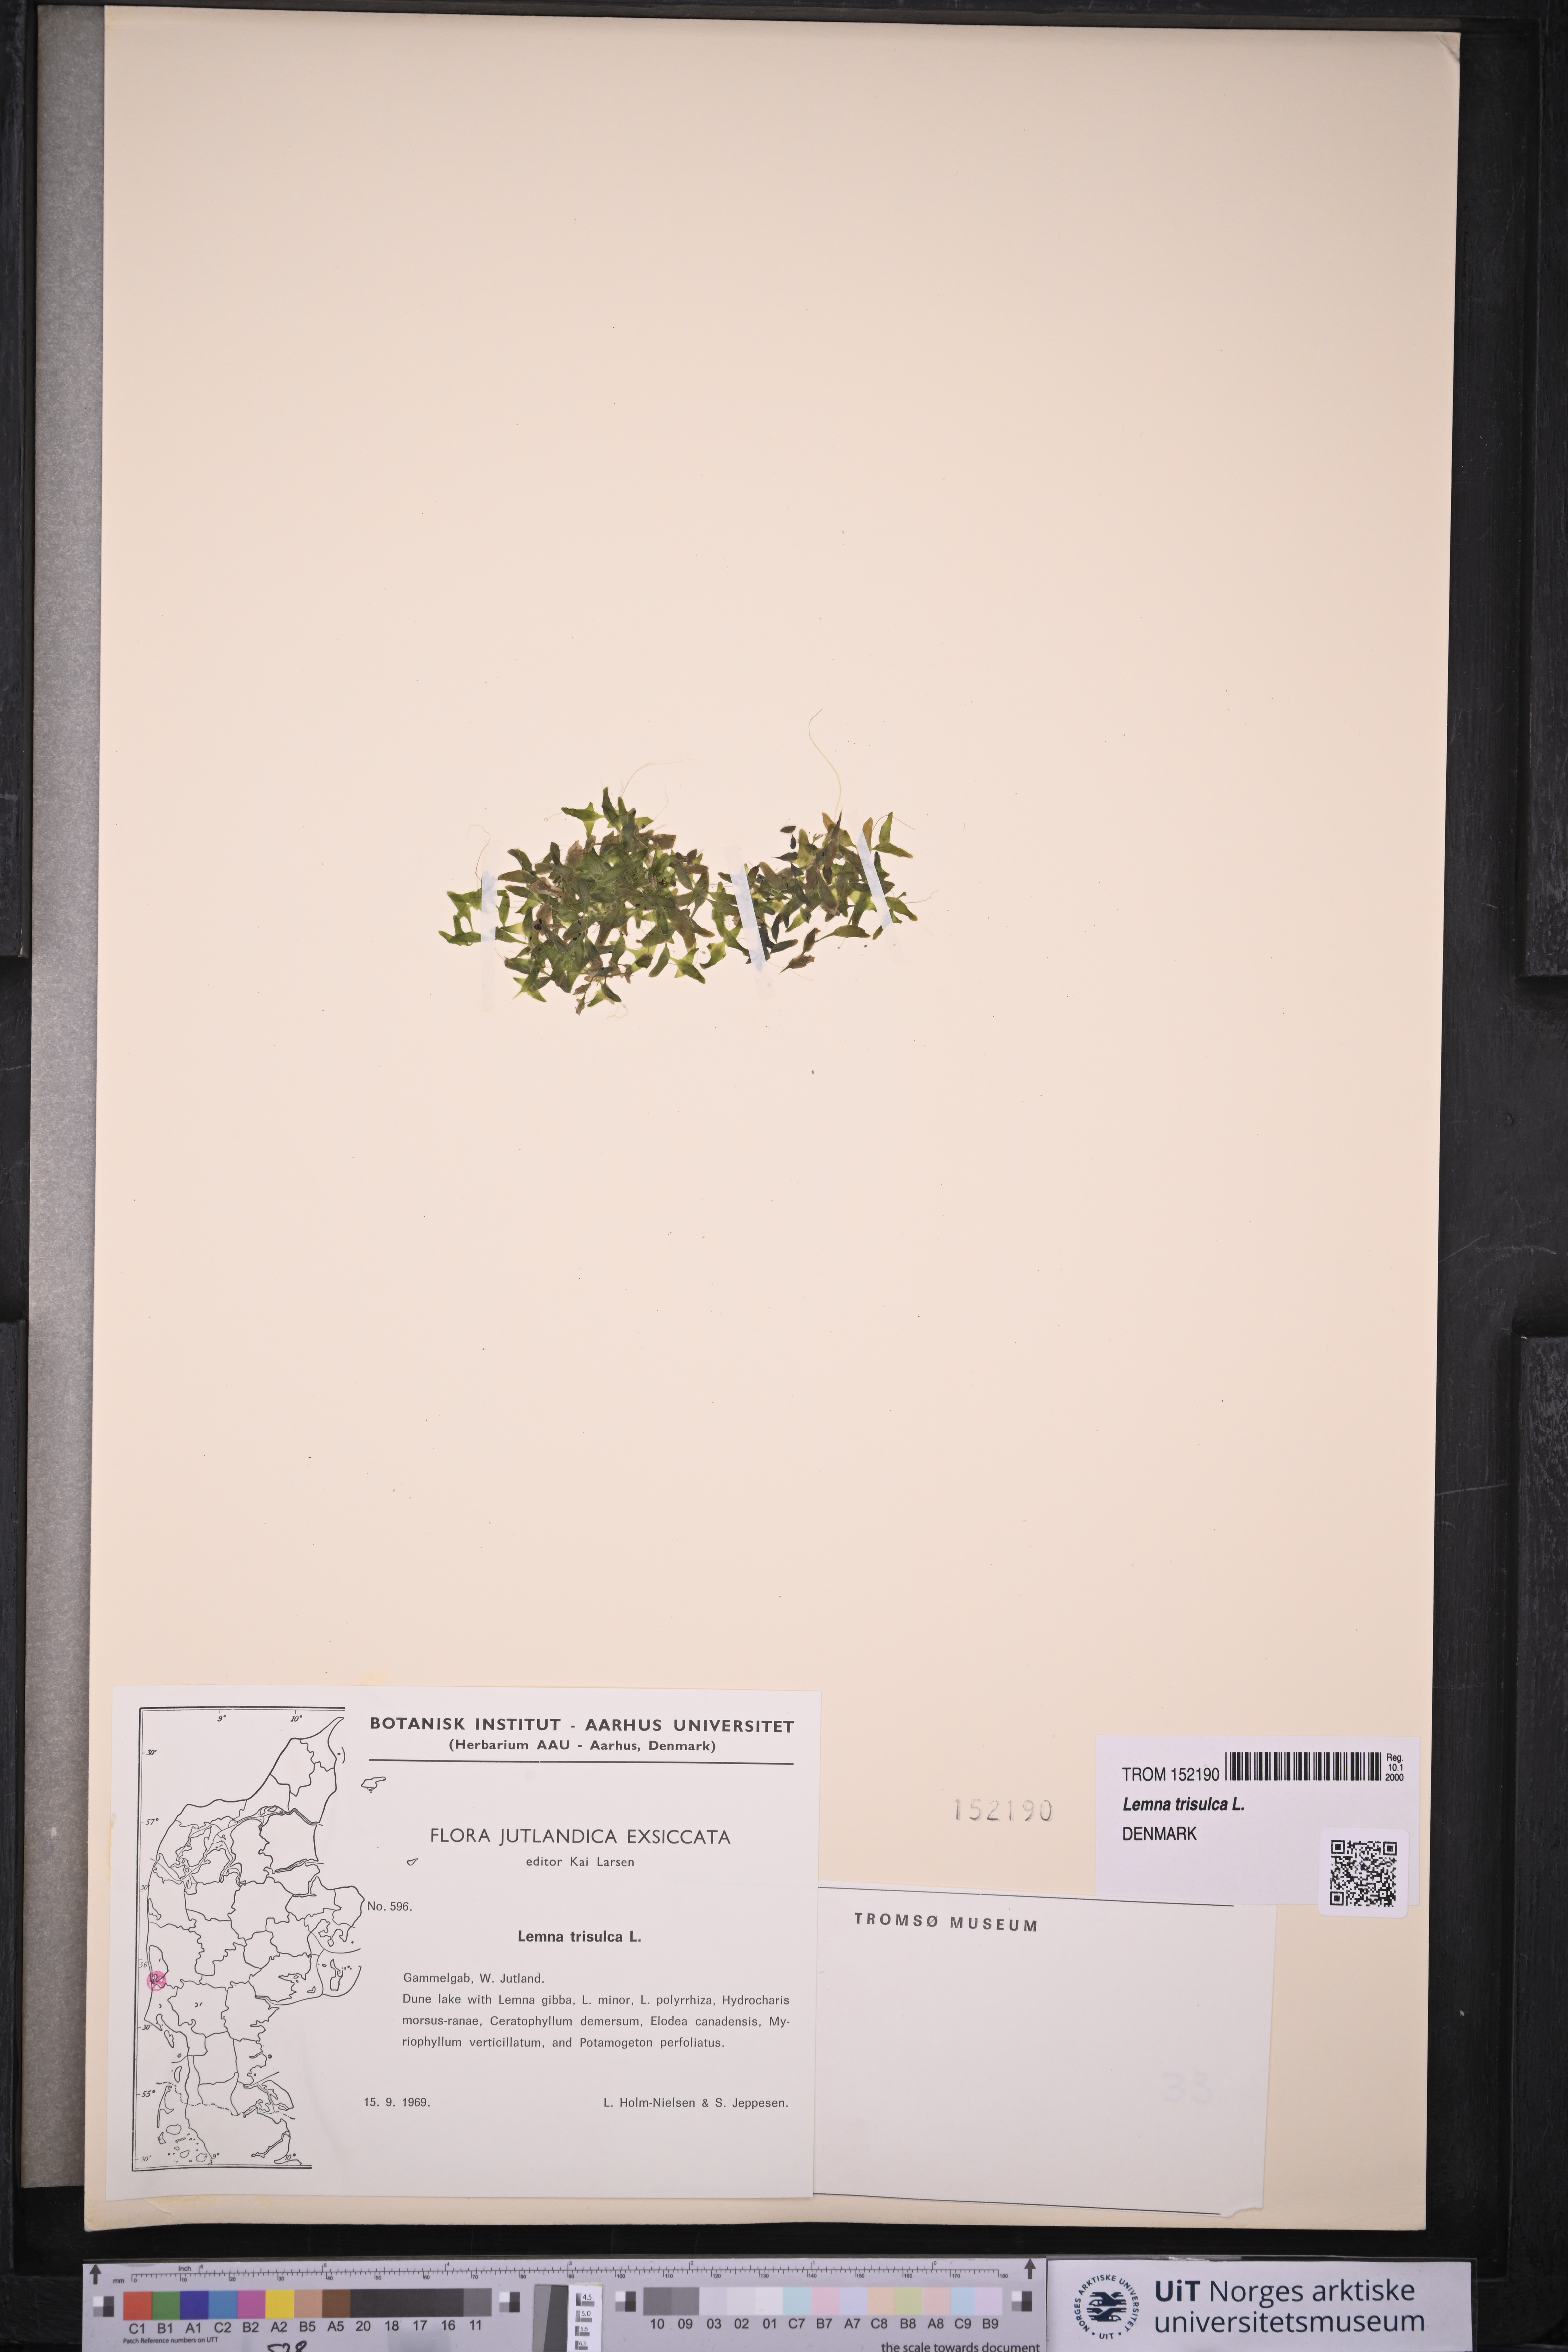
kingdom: Plantae
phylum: Tracheophyta
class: Liliopsida
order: Alismatales
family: Araceae
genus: Lemna
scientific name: Lemna trisulca
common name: Ivy-leaved duckweed
